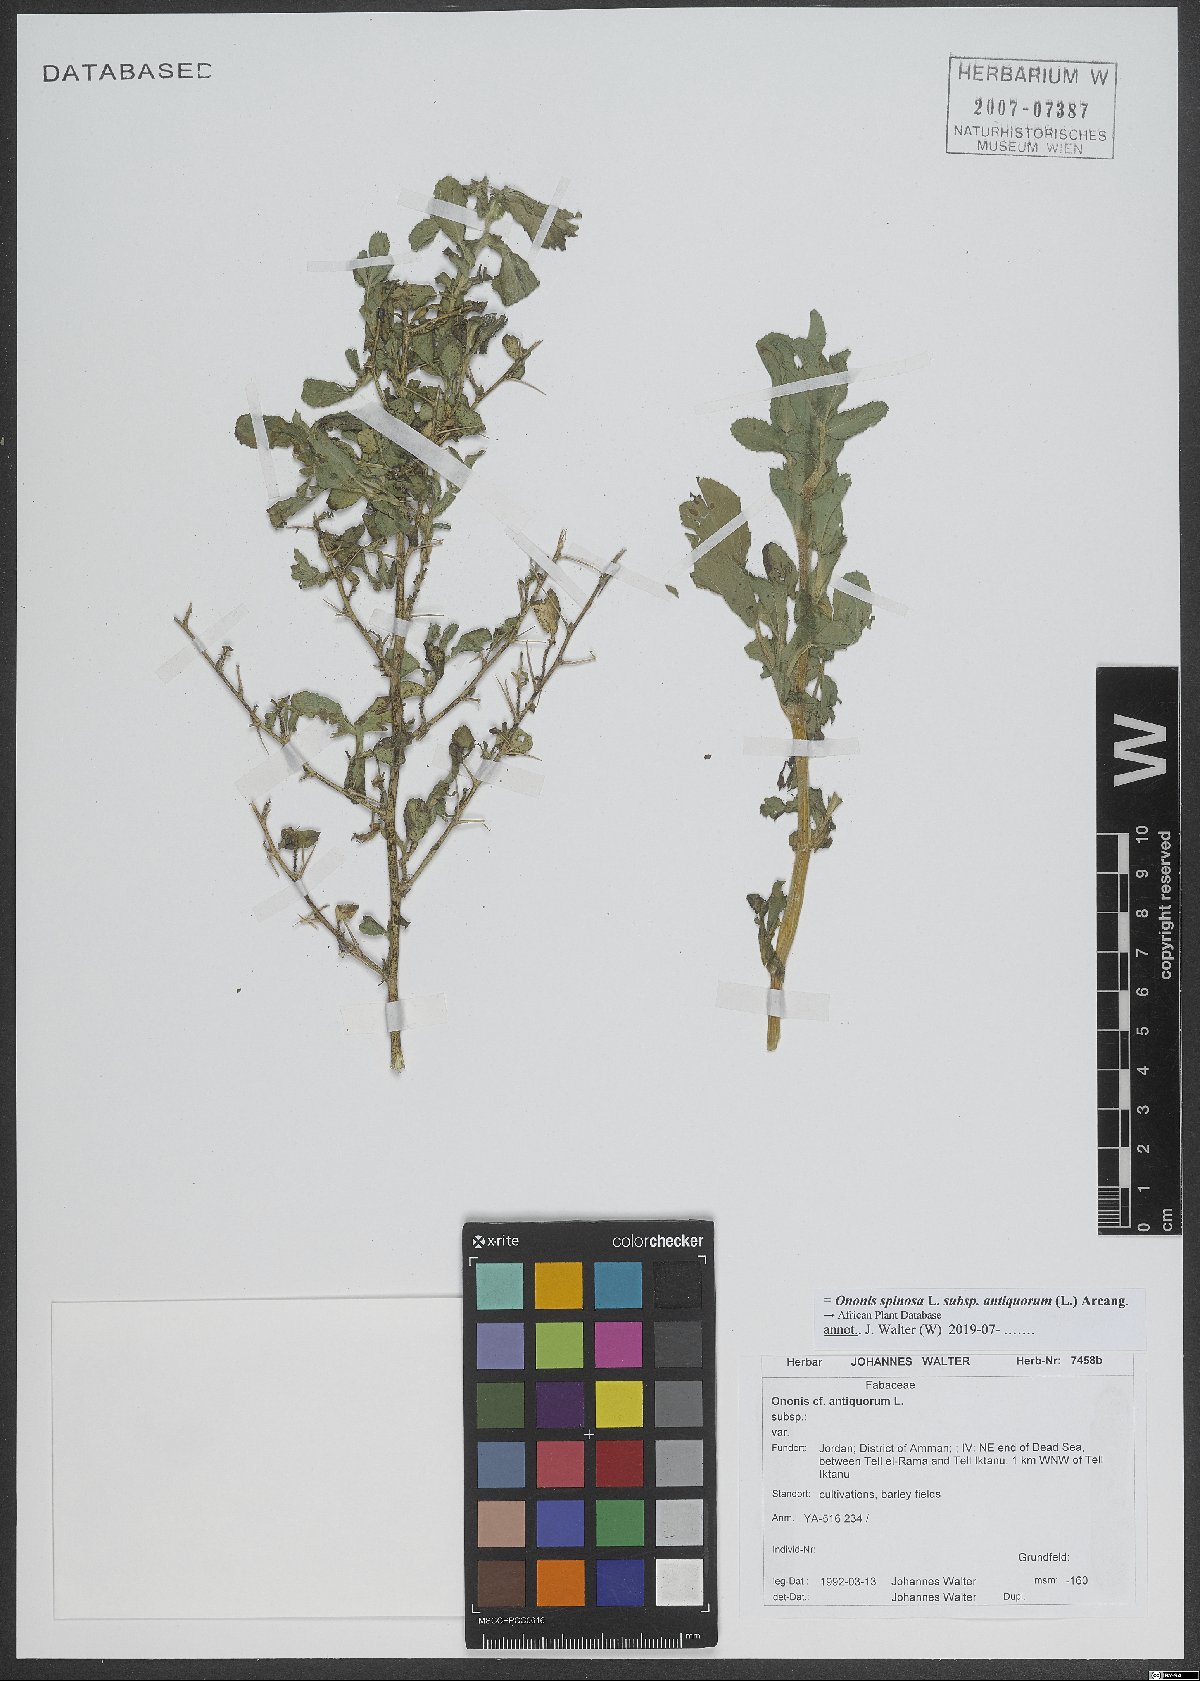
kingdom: Plantae
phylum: Tracheophyta
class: Magnoliopsida
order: Fabales
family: Fabaceae
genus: Ononis
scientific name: Ononis spinosa
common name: Spiny restharrow
